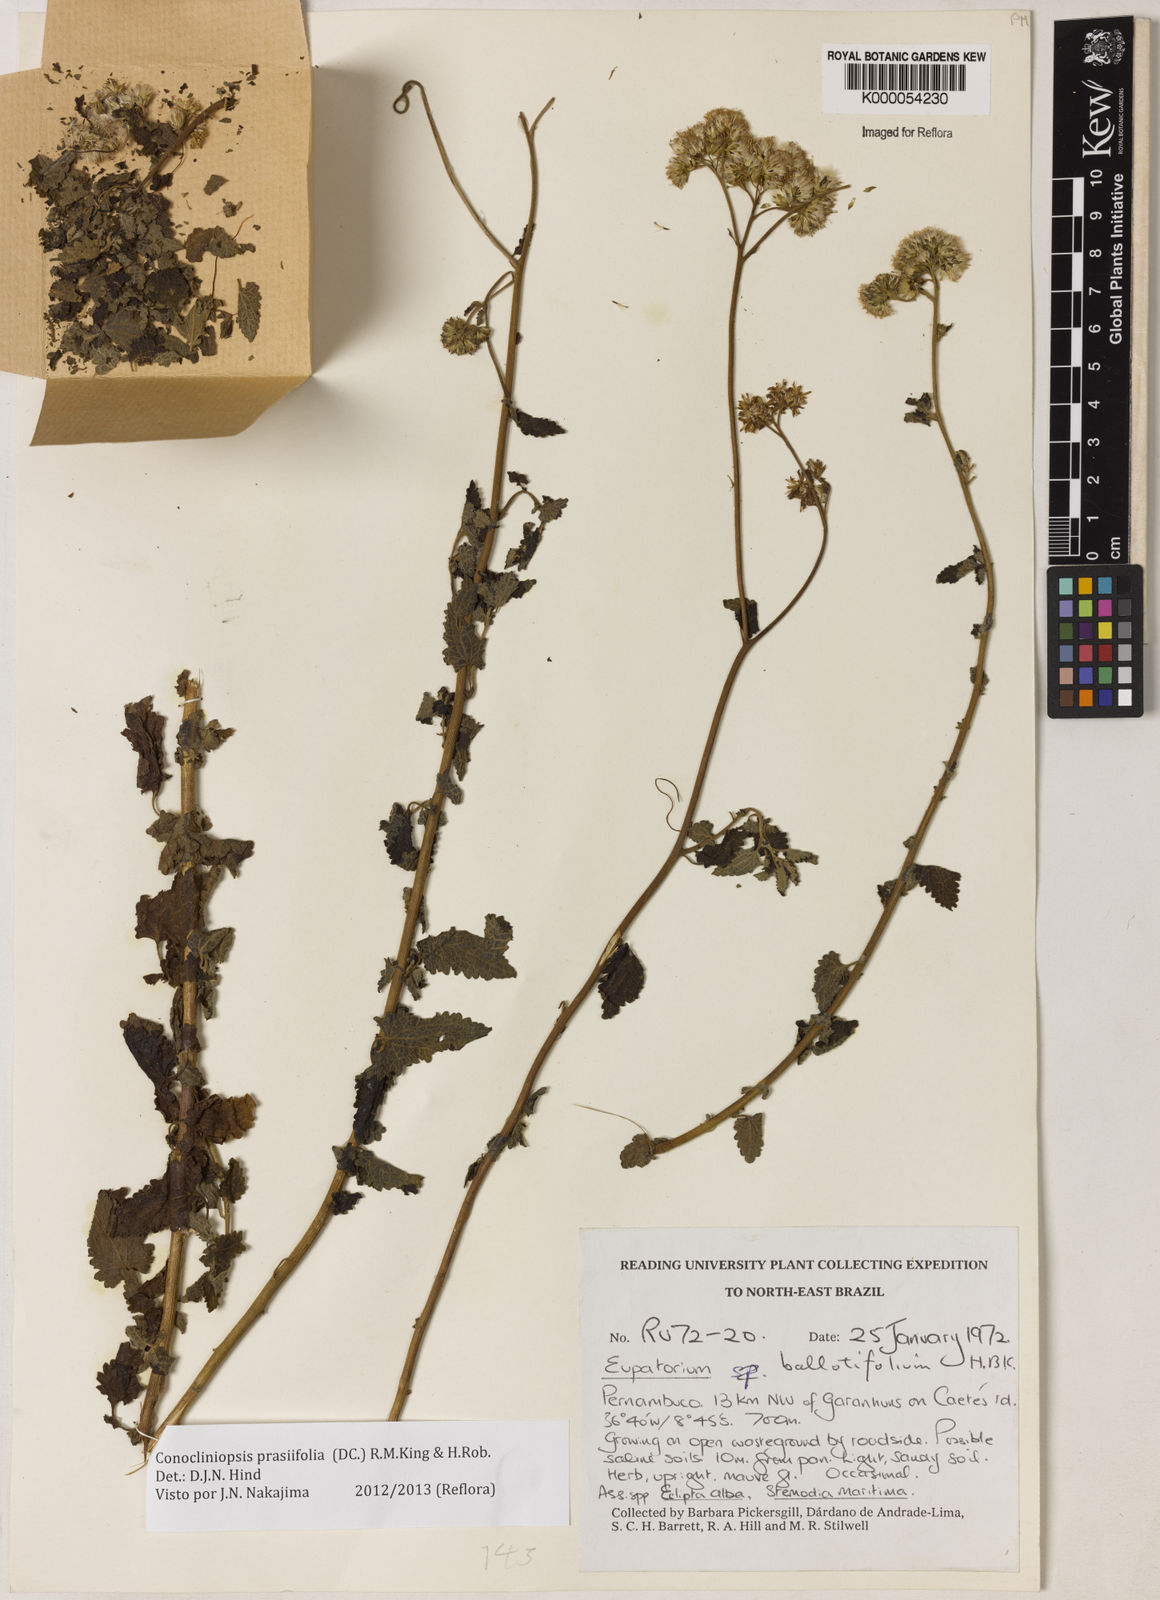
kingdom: Plantae
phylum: Tracheophyta
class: Magnoliopsida
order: Asterales
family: Asteraceae
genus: Conocliniopsis
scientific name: Conocliniopsis grossedentata
